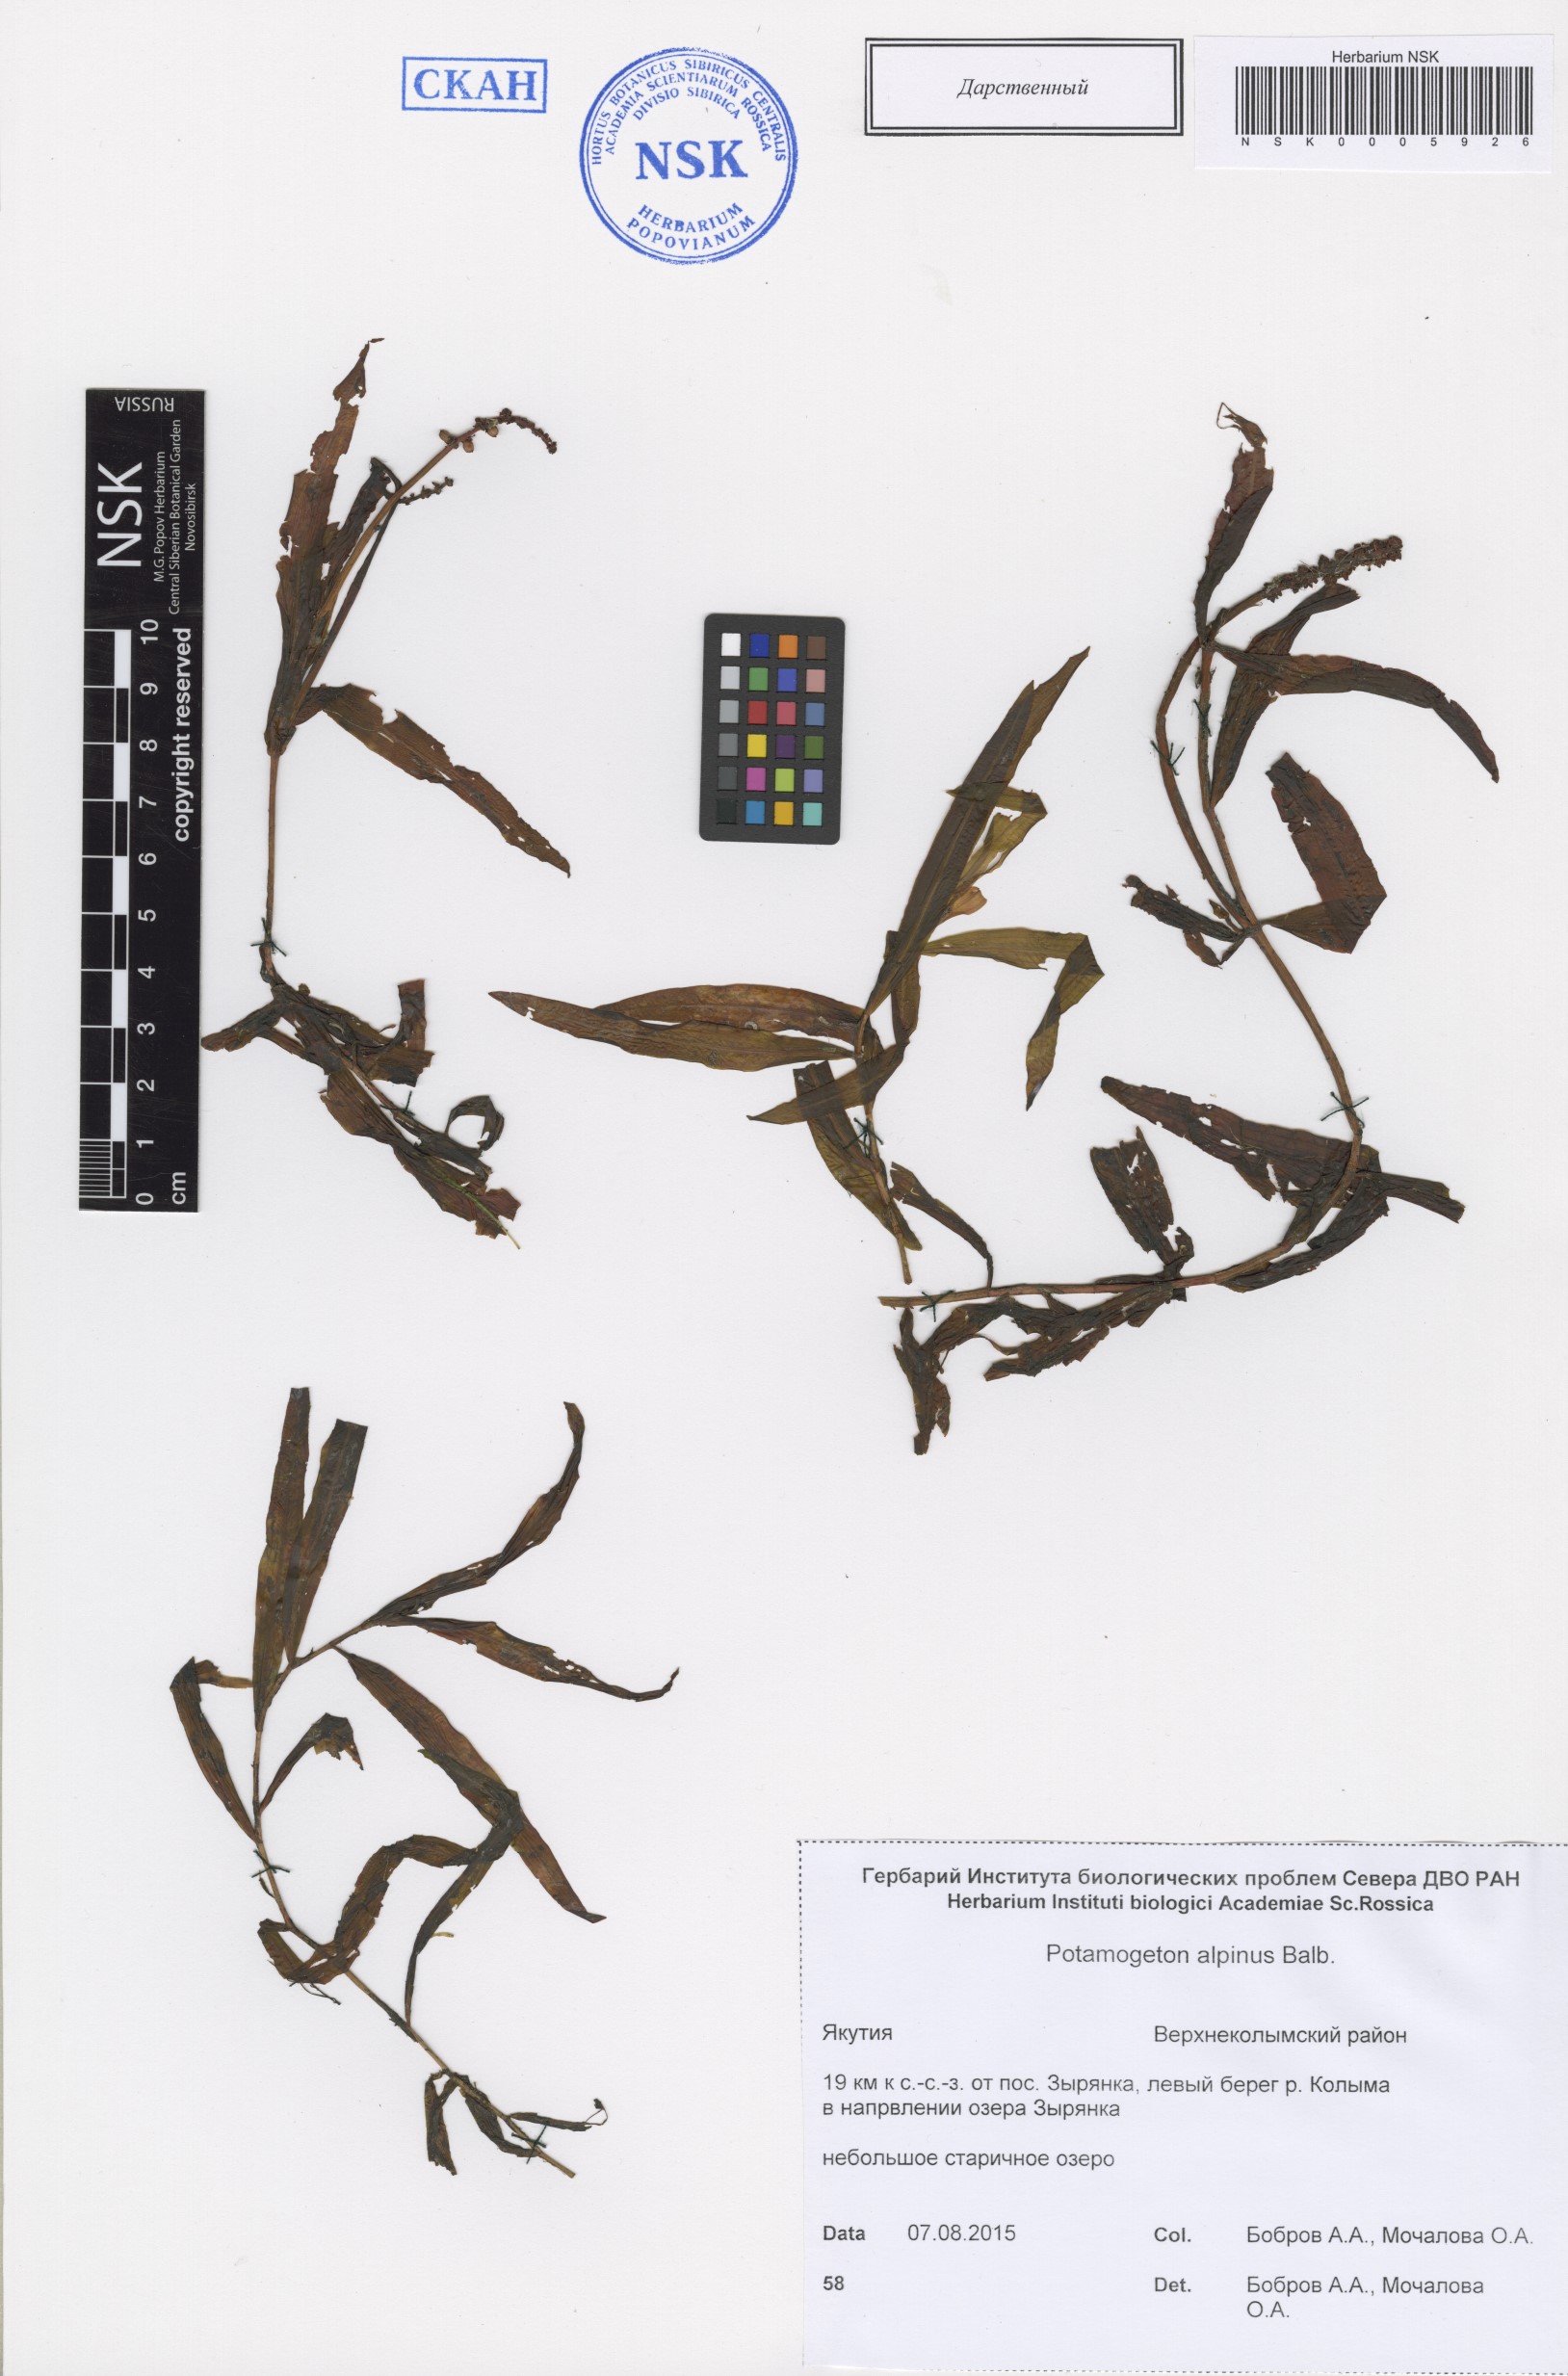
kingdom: Plantae
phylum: Tracheophyta
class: Liliopsida
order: Alismatales
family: Potamogetonaceae
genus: Potamogeton
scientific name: Potamogeton alpinus
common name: Red pondweed
